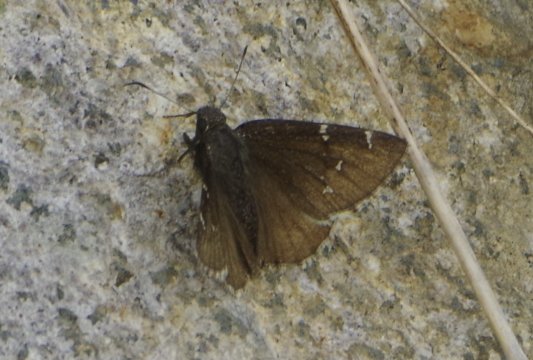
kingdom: Animalia
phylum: Arthropoda
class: Insecta
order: Lepidoptera
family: Hesperiidae
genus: Autochton
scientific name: Autochton
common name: Northern Cloudywing
